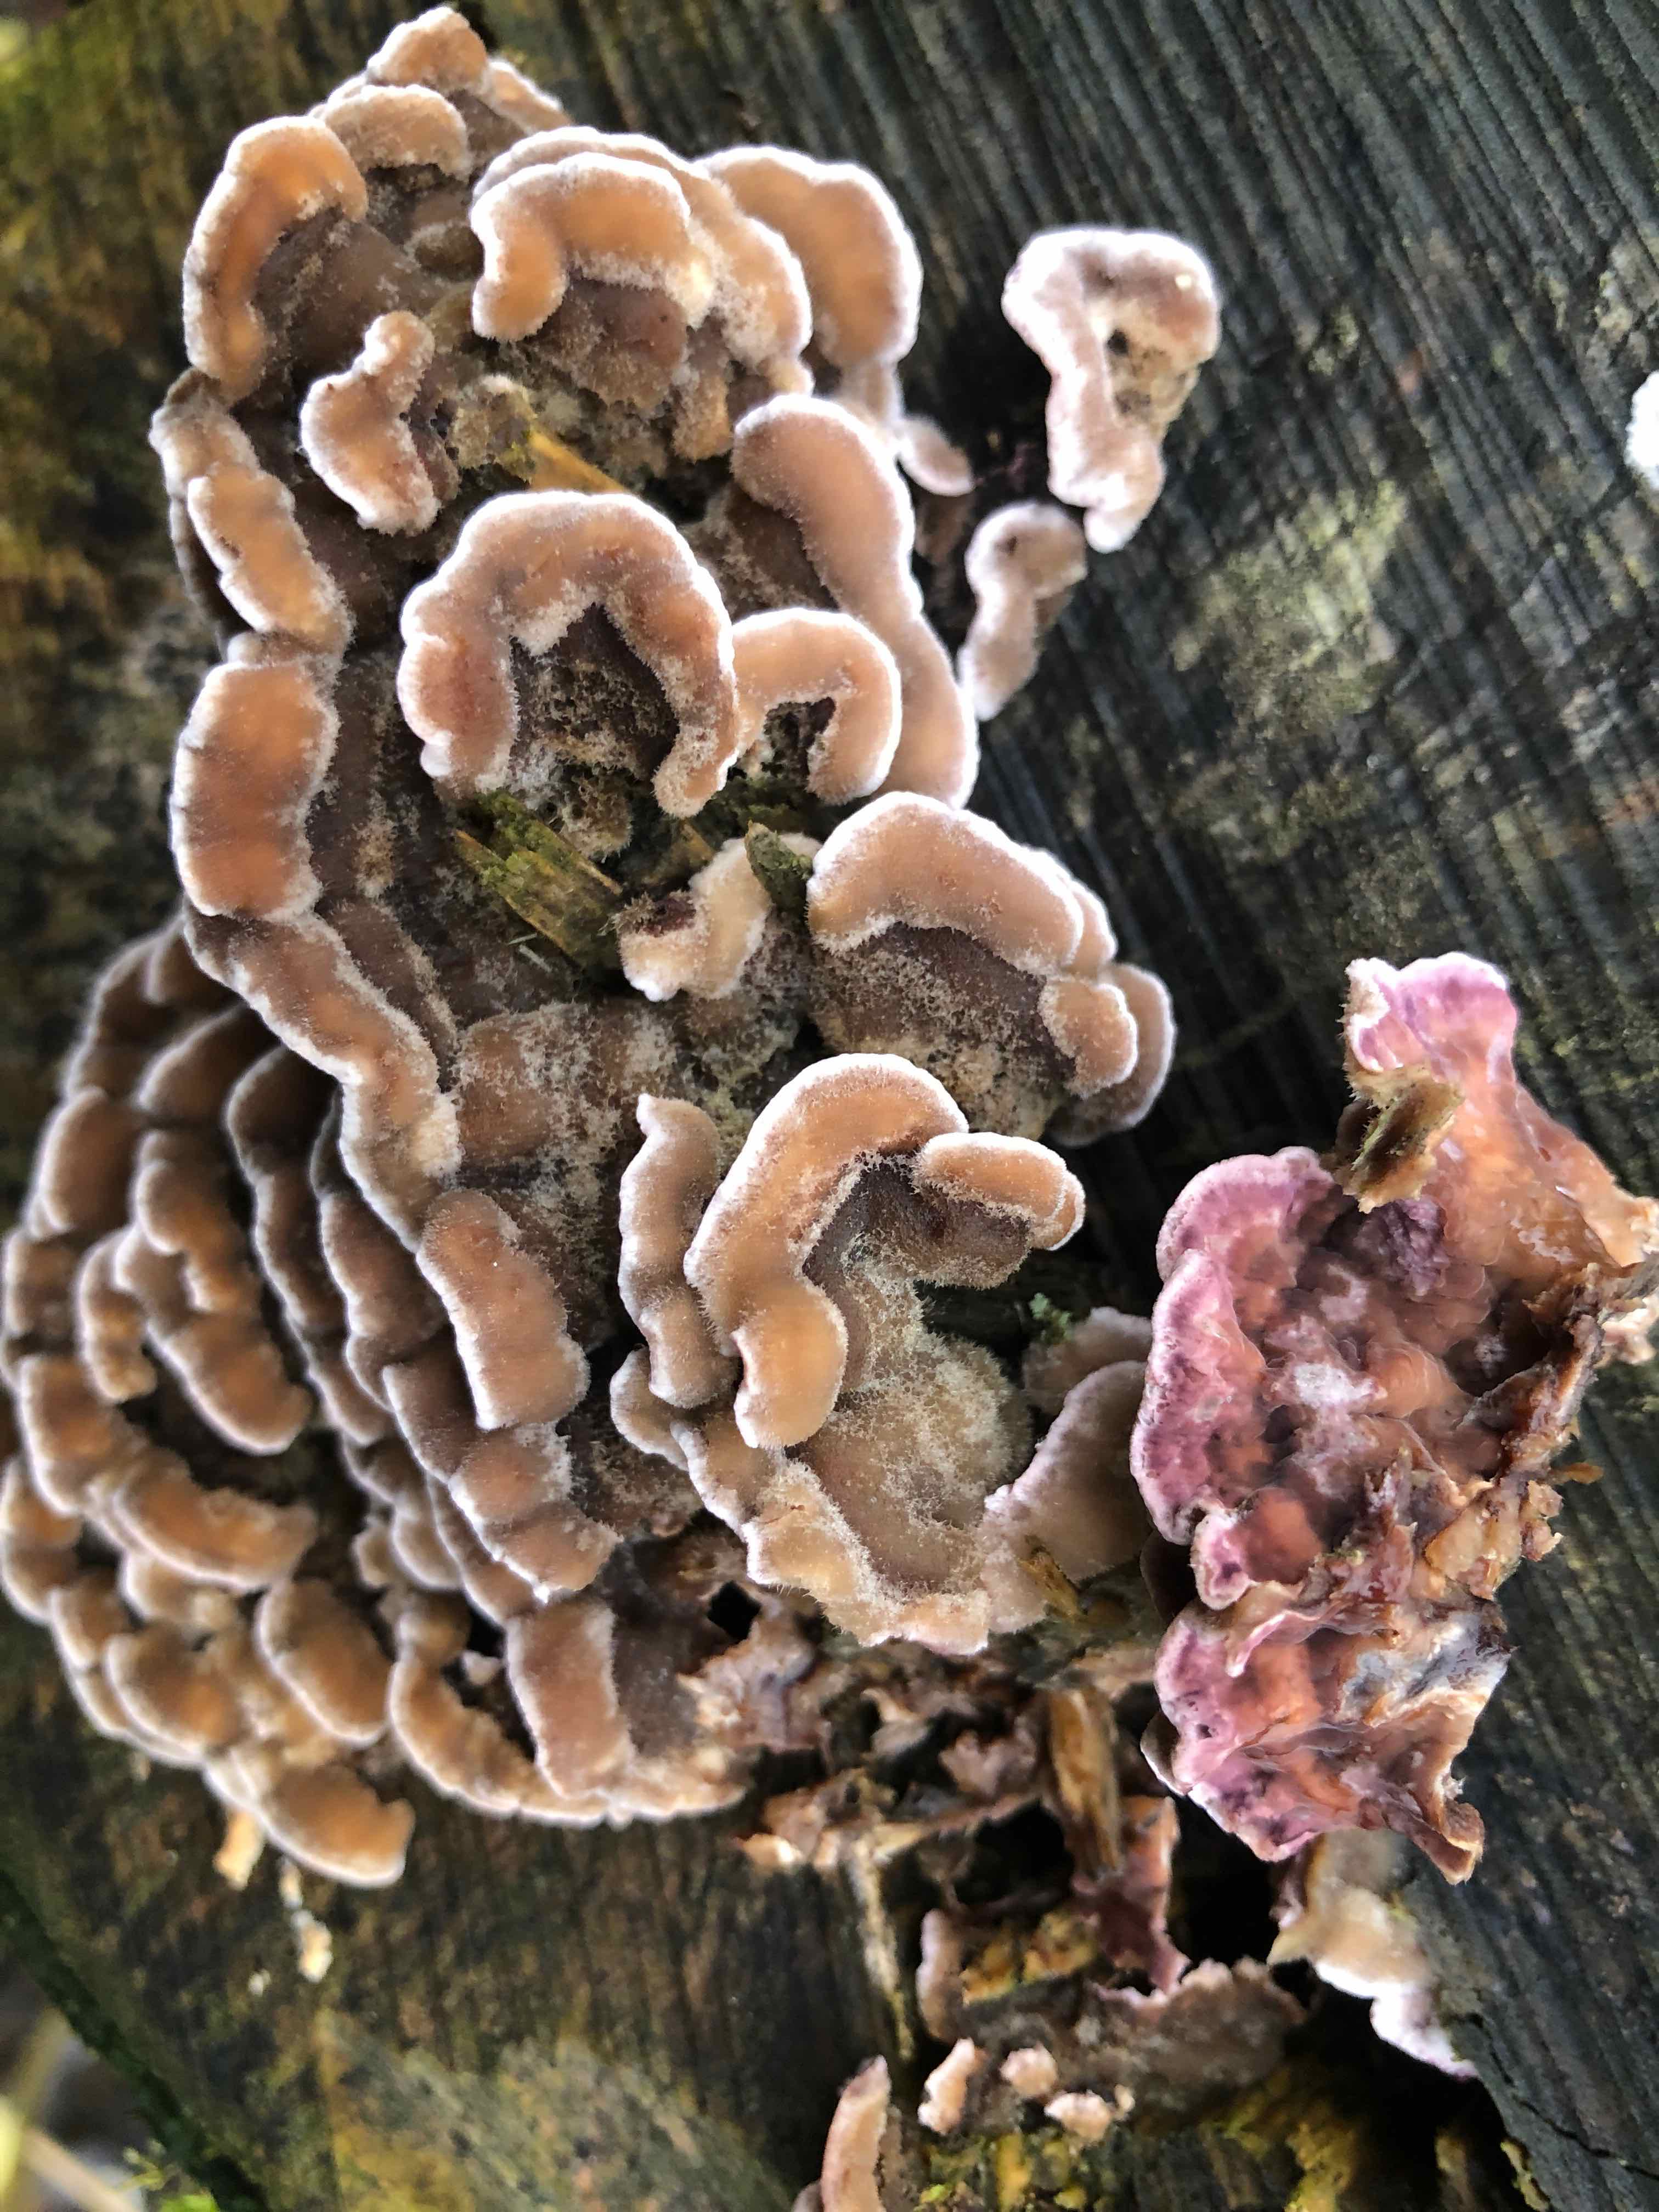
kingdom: Fungi
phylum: Basidiomycota
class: Agaricomycetes
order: Agaricales
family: Cyphellaceae
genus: Chondrostereum
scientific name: Chondrostereum purpureum
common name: purpurlædersvamp
